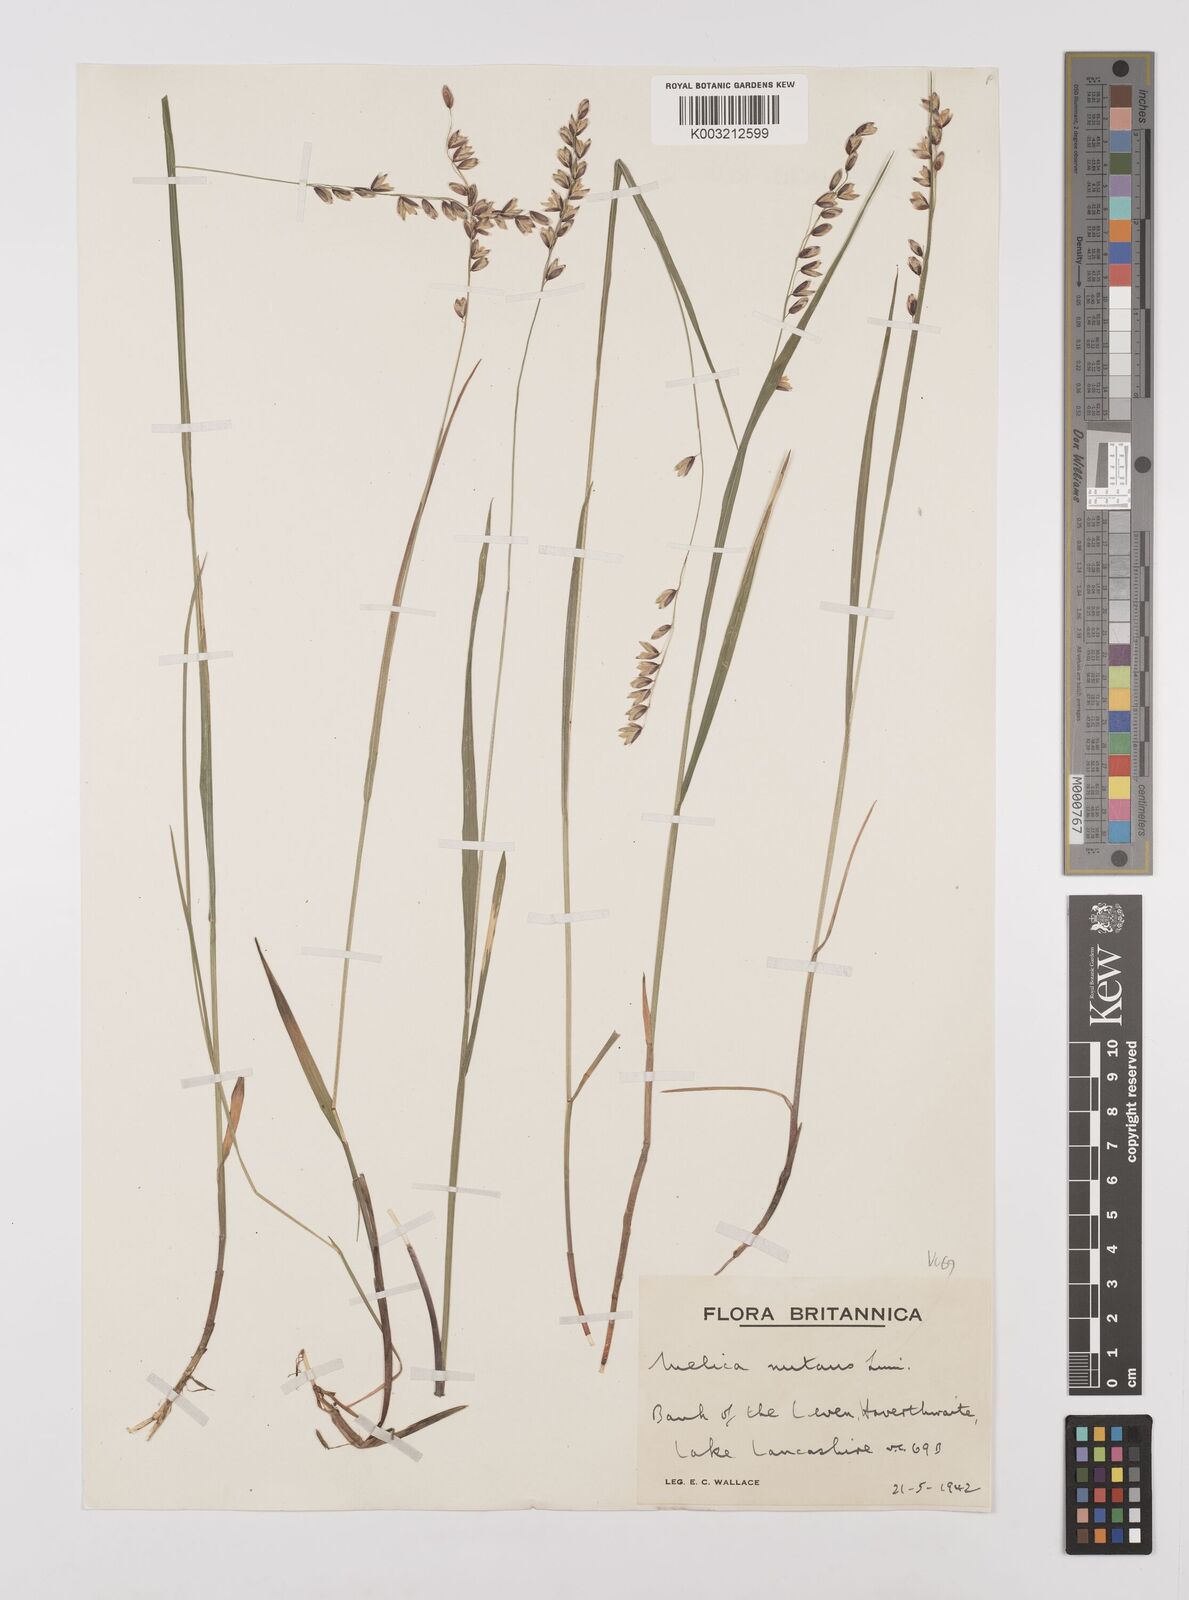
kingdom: Plantae
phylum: Tracheophyta
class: Liliopsida
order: Poales
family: Poaceae
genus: Melica
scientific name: Melica
